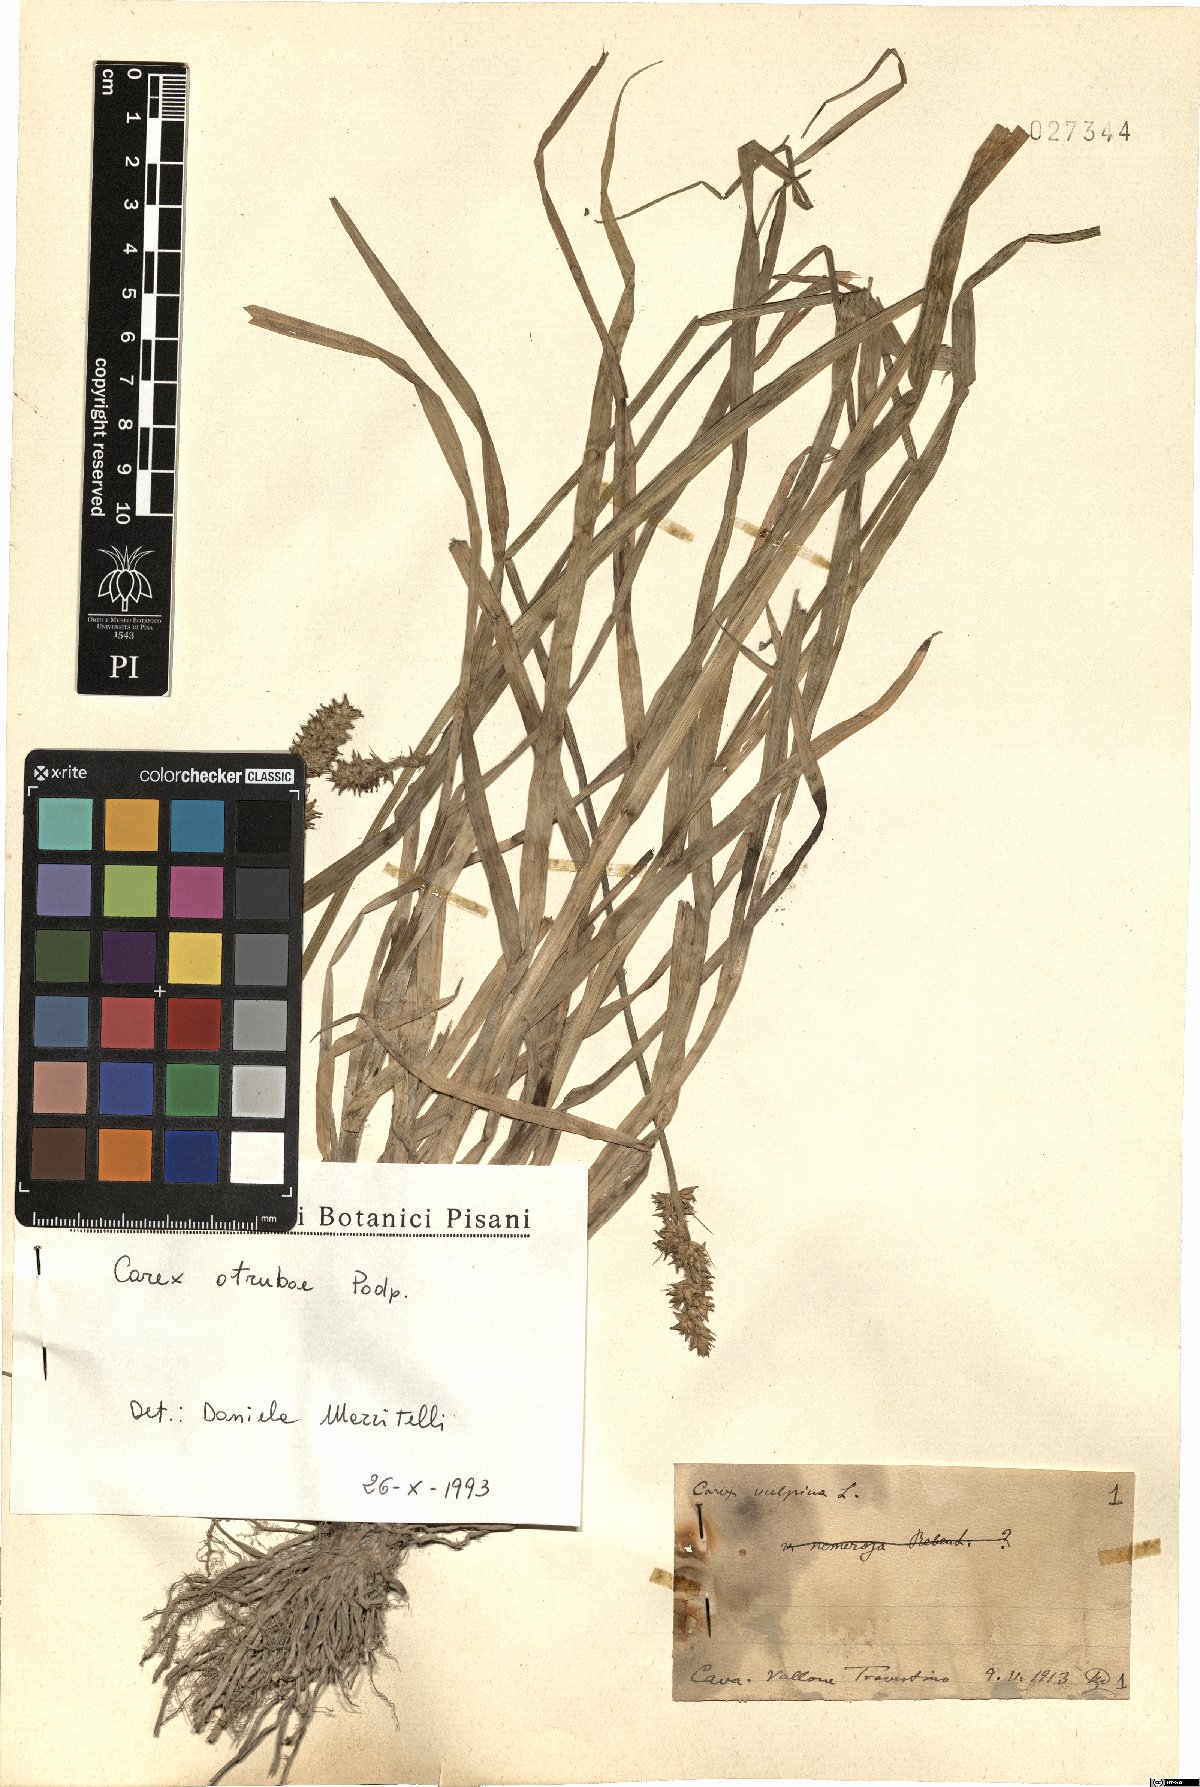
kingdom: Plantae
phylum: Tracheophyta
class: Liliopsida
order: Poales
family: Cyperaceae
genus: Carex
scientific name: Carex otrubae
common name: False fox-sedge
